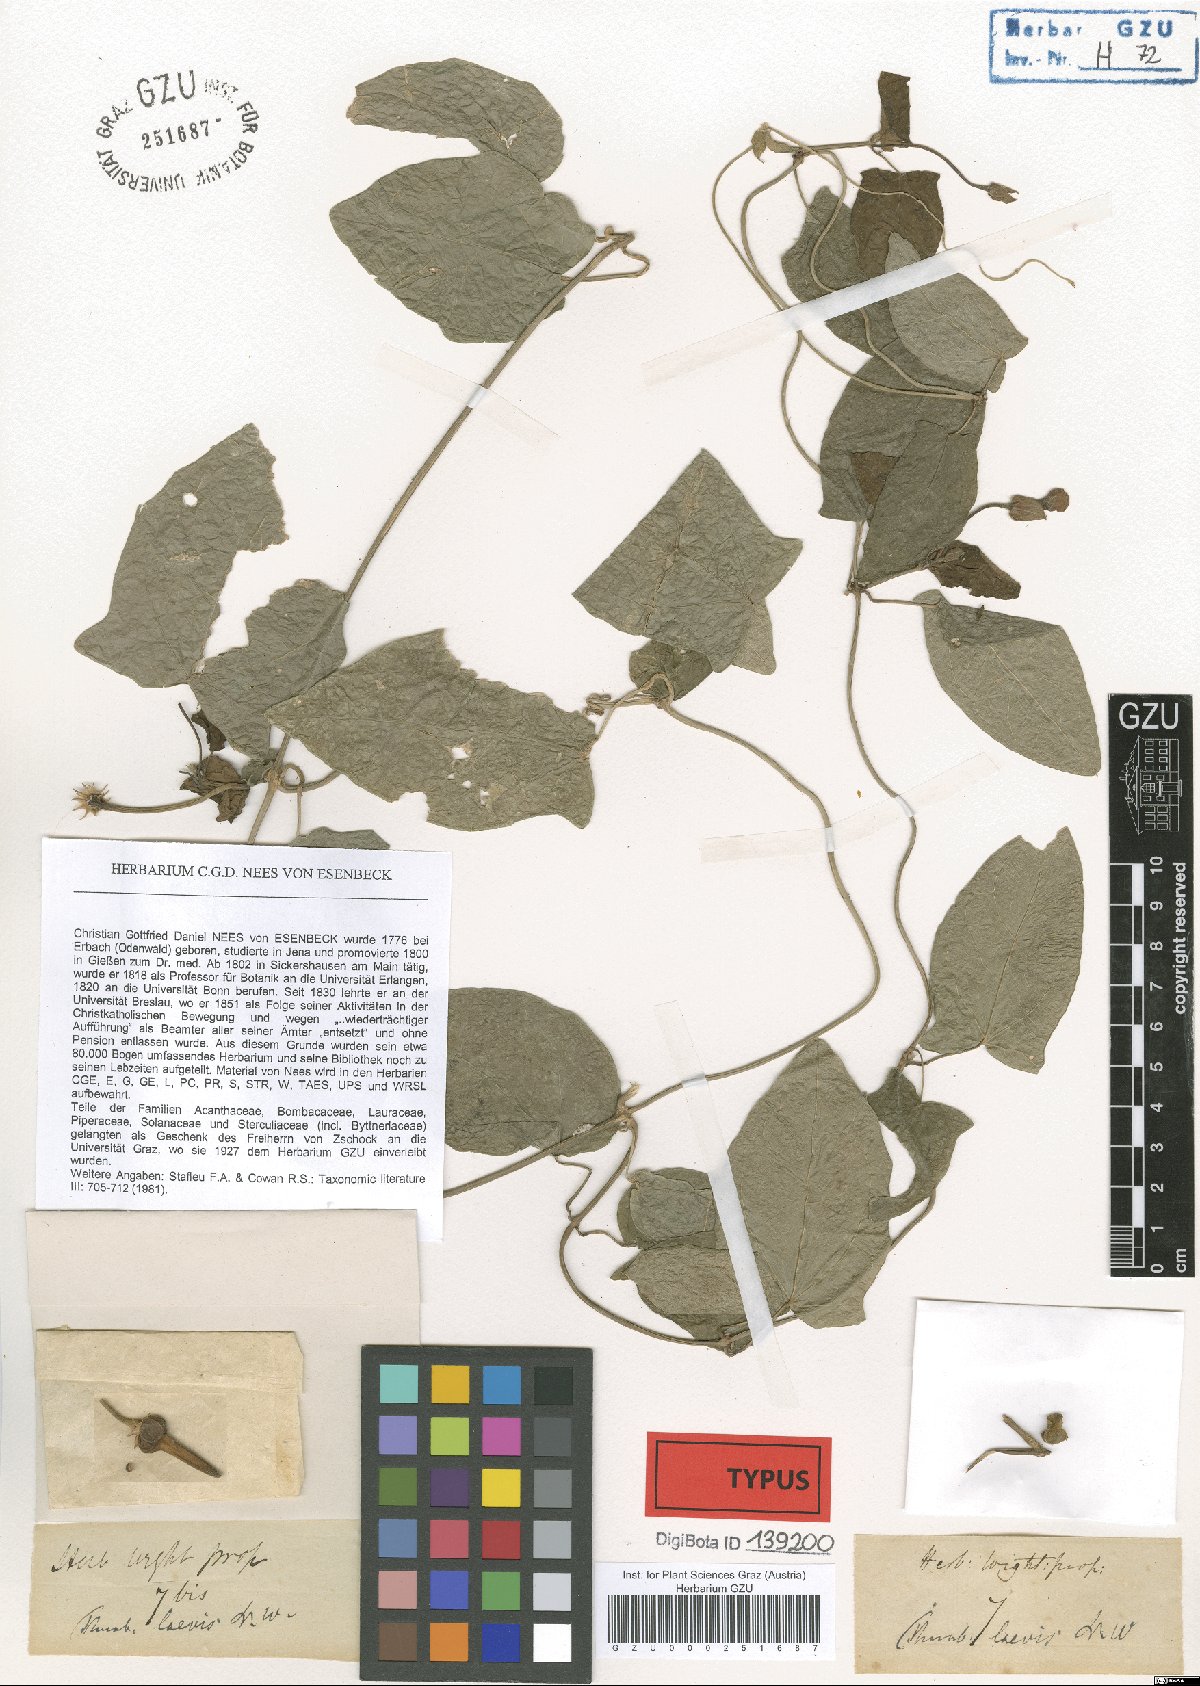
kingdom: Plantae
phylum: Tracheophyta
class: Magnoliopsida
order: Lamiales
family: Acanthaceae
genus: Thunbergia
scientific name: Thunbergia laevis
